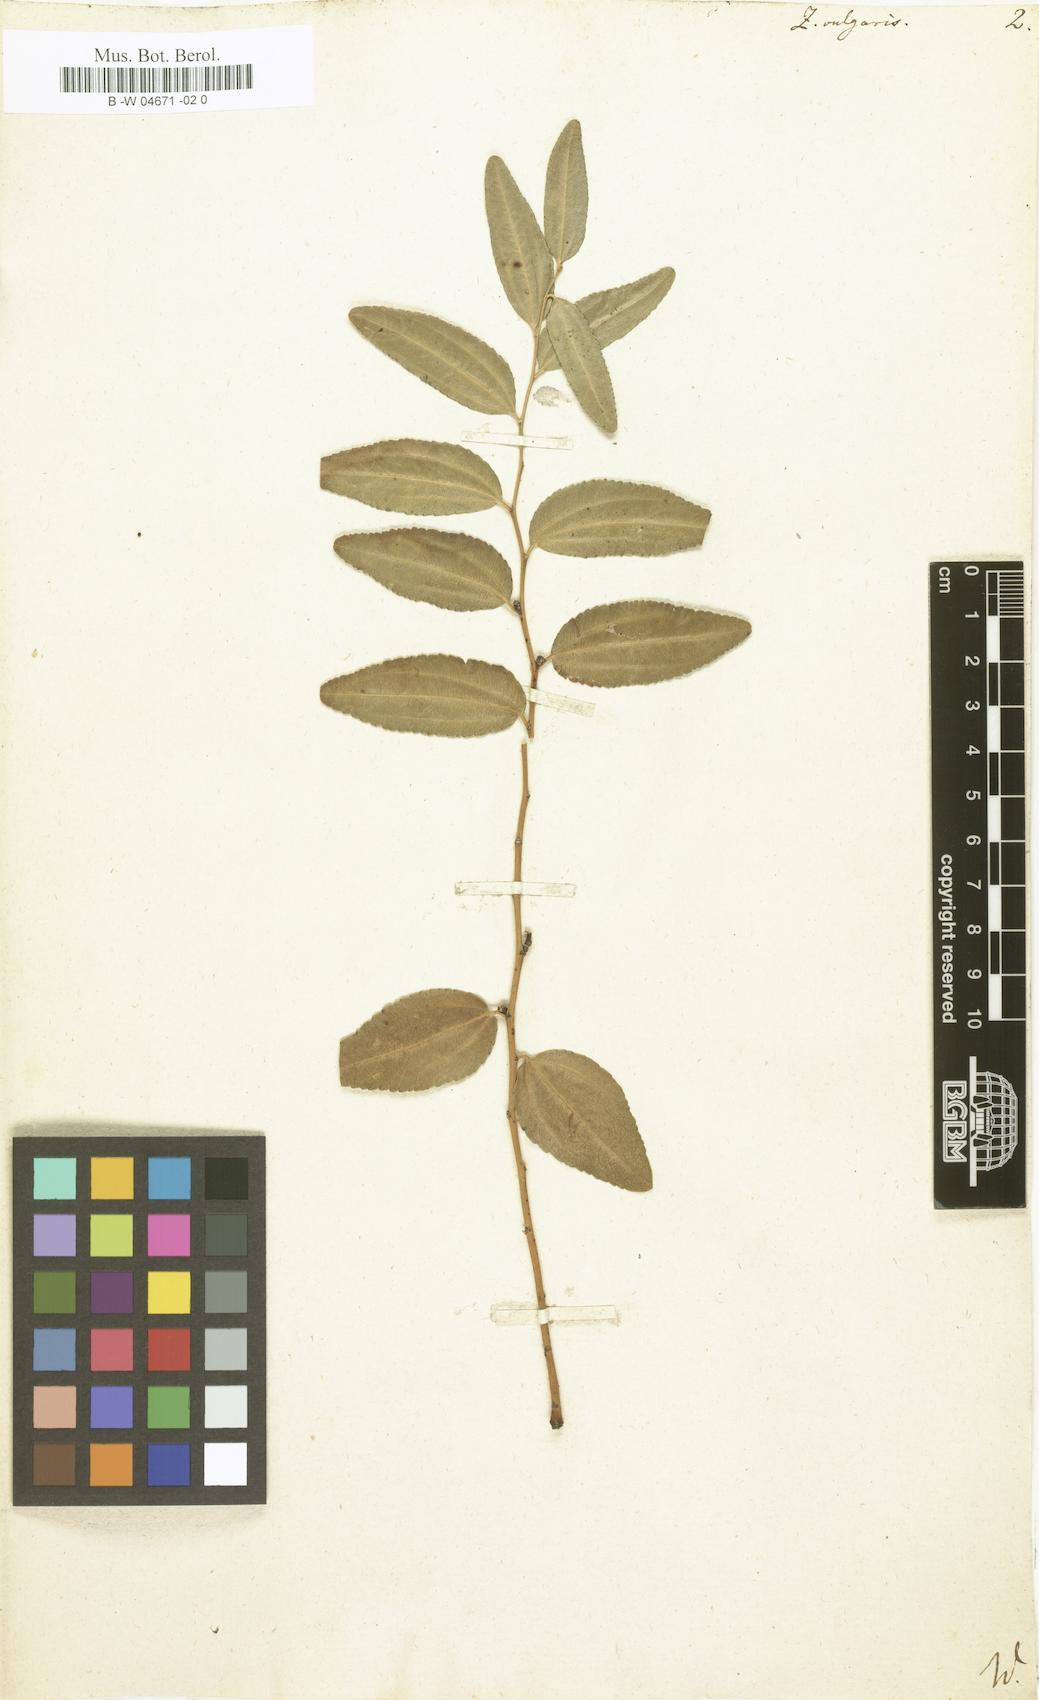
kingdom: Plantae
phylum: Tracheophyta
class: Magnoliopsida
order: Rosales
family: Rhamnaceae
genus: Ziziphus
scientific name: Ziziphus jujuba
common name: Jujube red date
